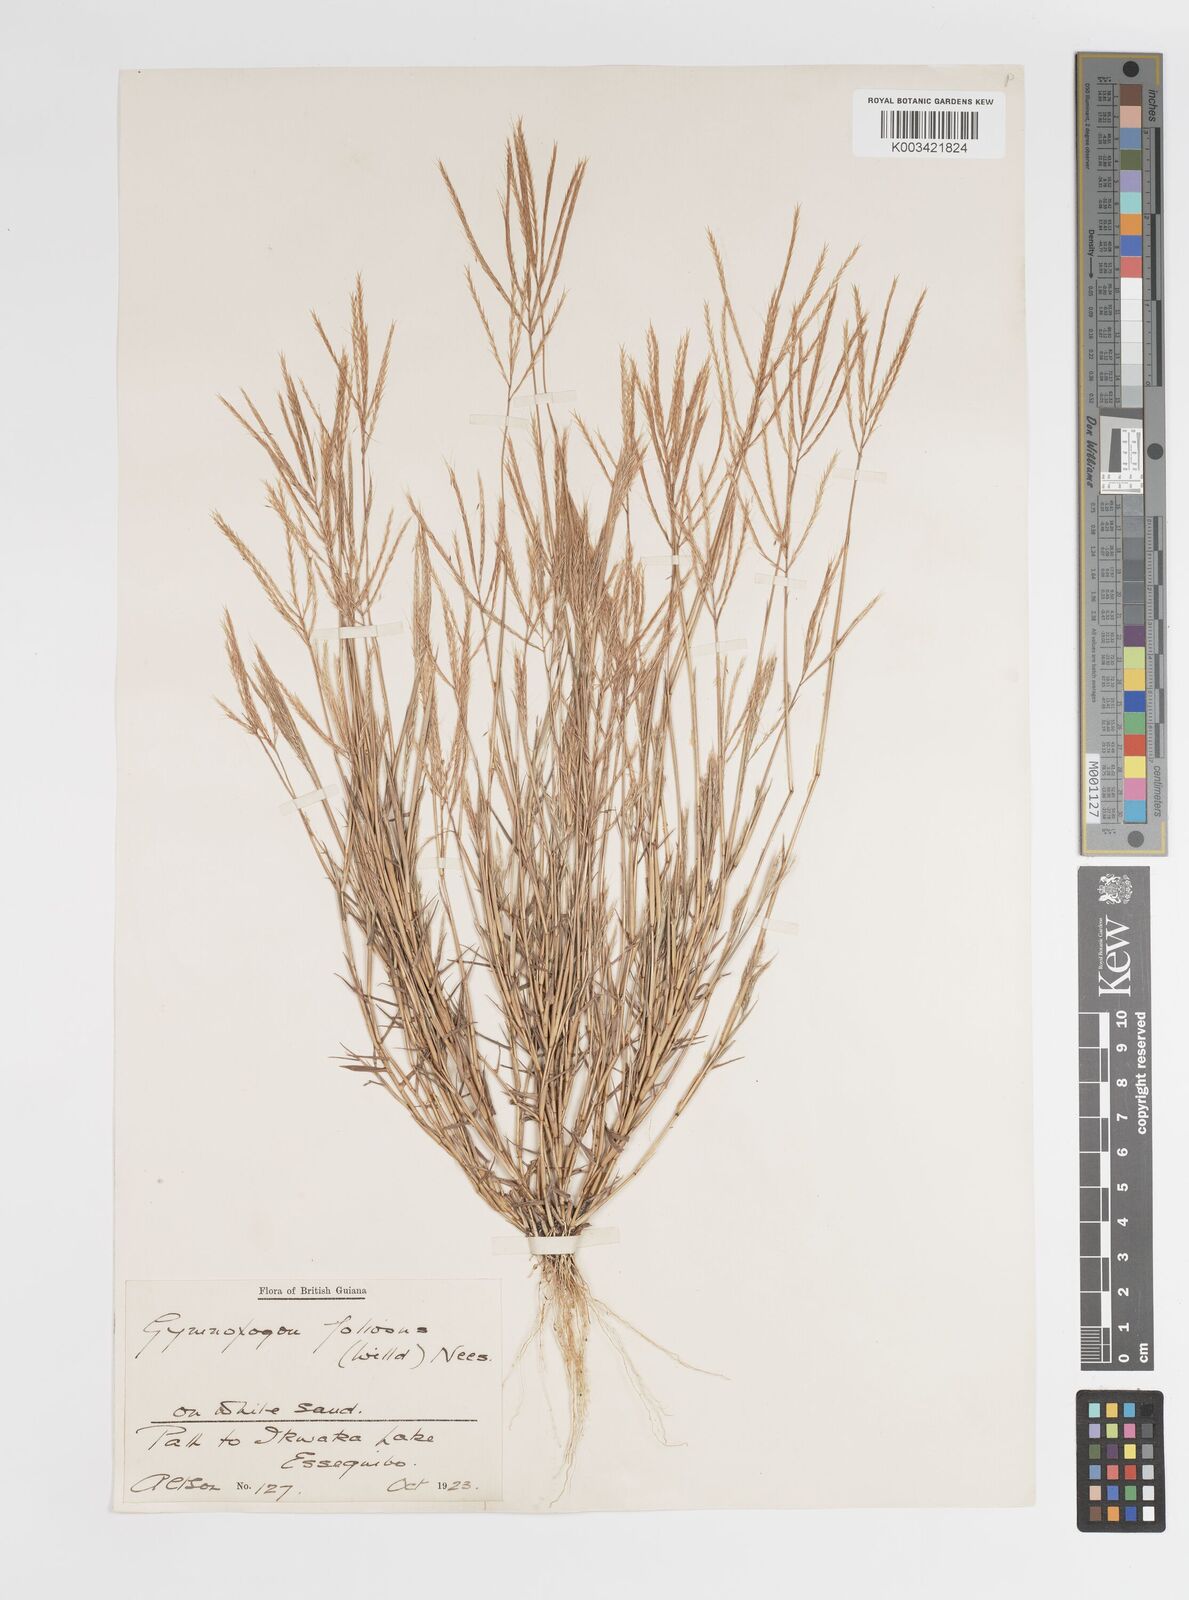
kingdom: Plantae
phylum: Tracheophyta
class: Liliopsida
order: Poales
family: Poaceae
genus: Gymnopogon
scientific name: Gymnopogon foliosus
